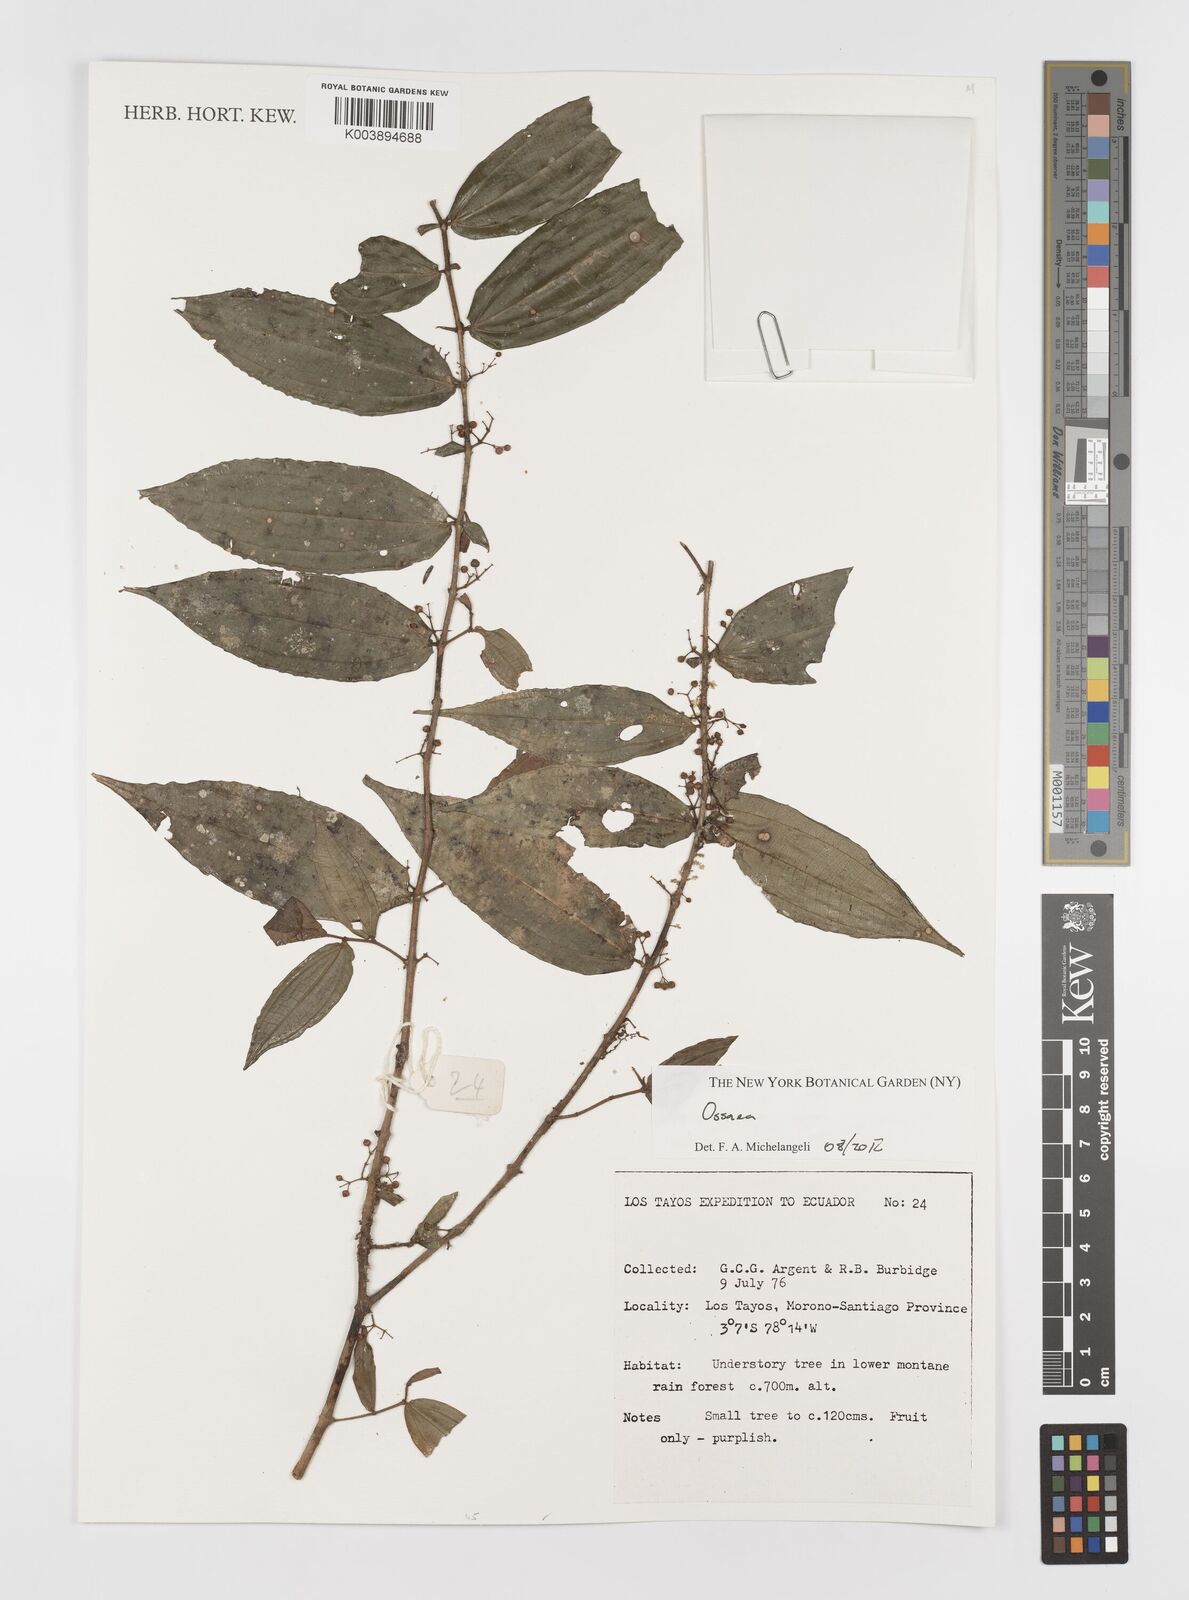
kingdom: Plantae
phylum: Tracheophyta
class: Magnoliopsida
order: Myrtales
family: Melastomataceae
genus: Ossaea
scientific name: Ossaea
